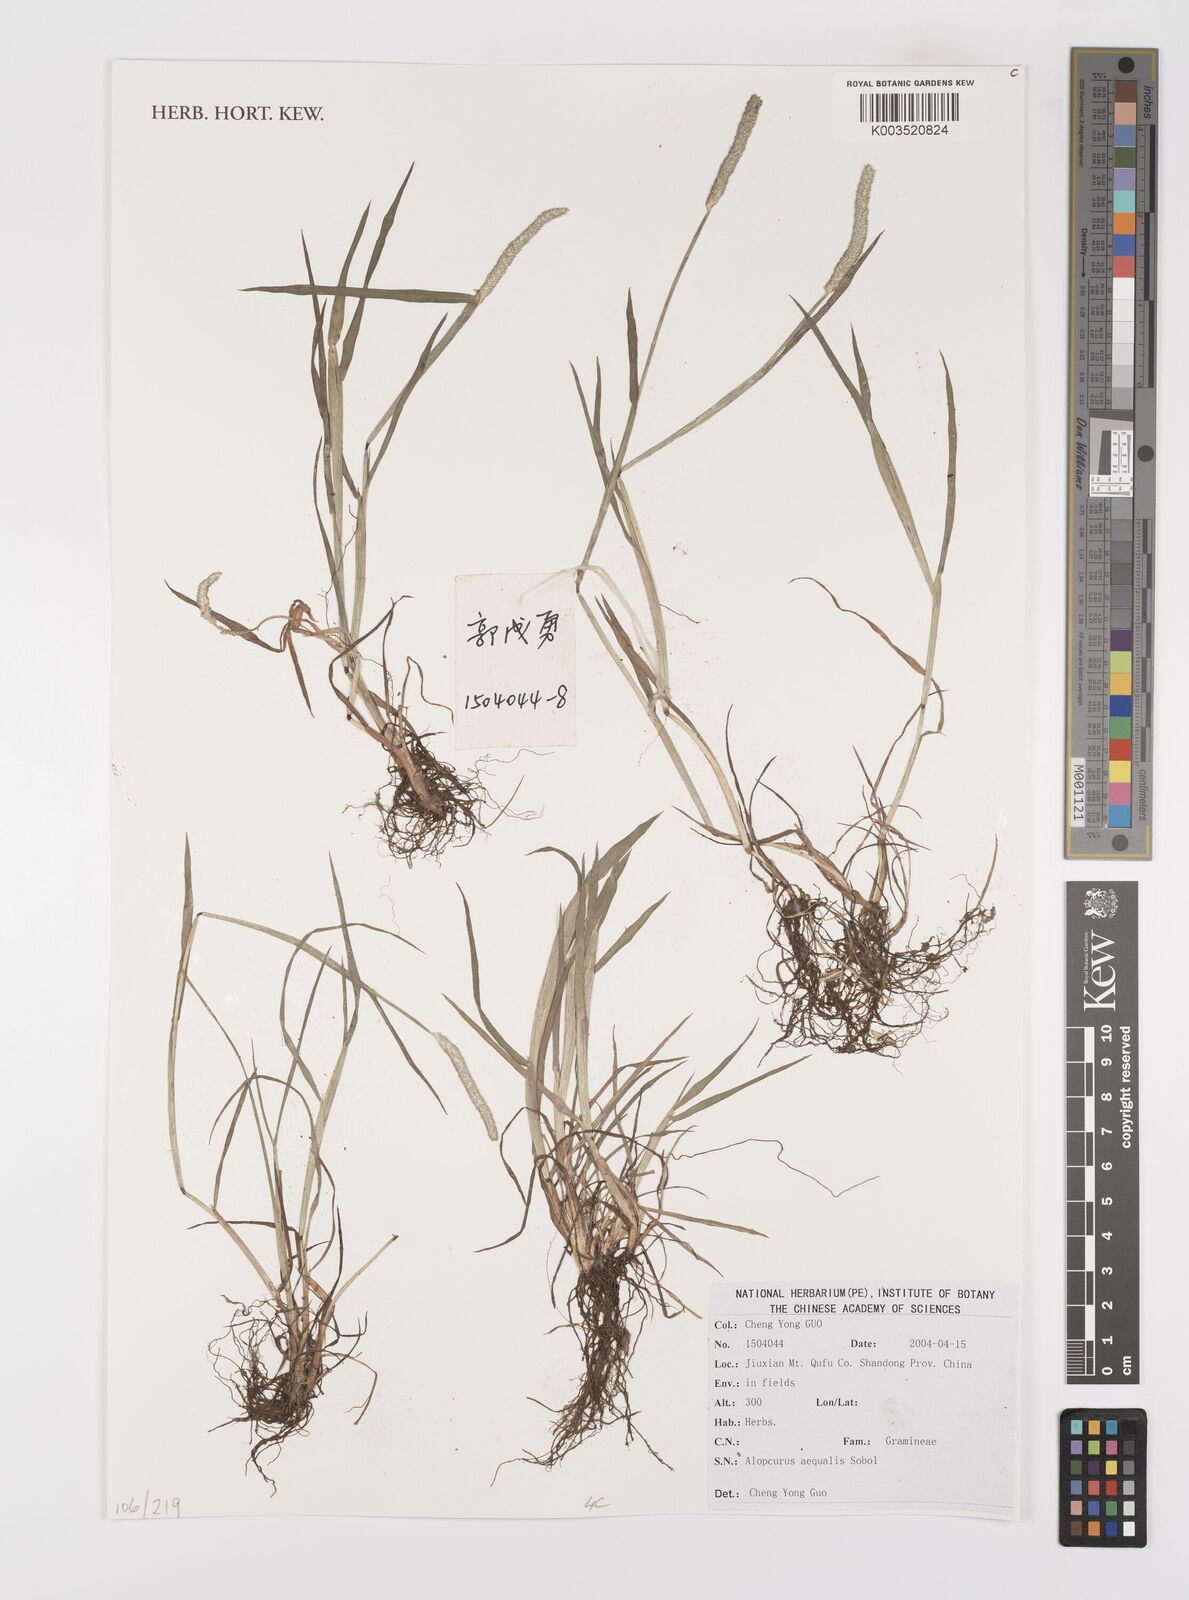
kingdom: Plantae
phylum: Tracheophyta
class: Liliopsida
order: Poales
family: Poaceae
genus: Alopecurus
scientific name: Alopecurus aequalis
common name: Orange foxtail
